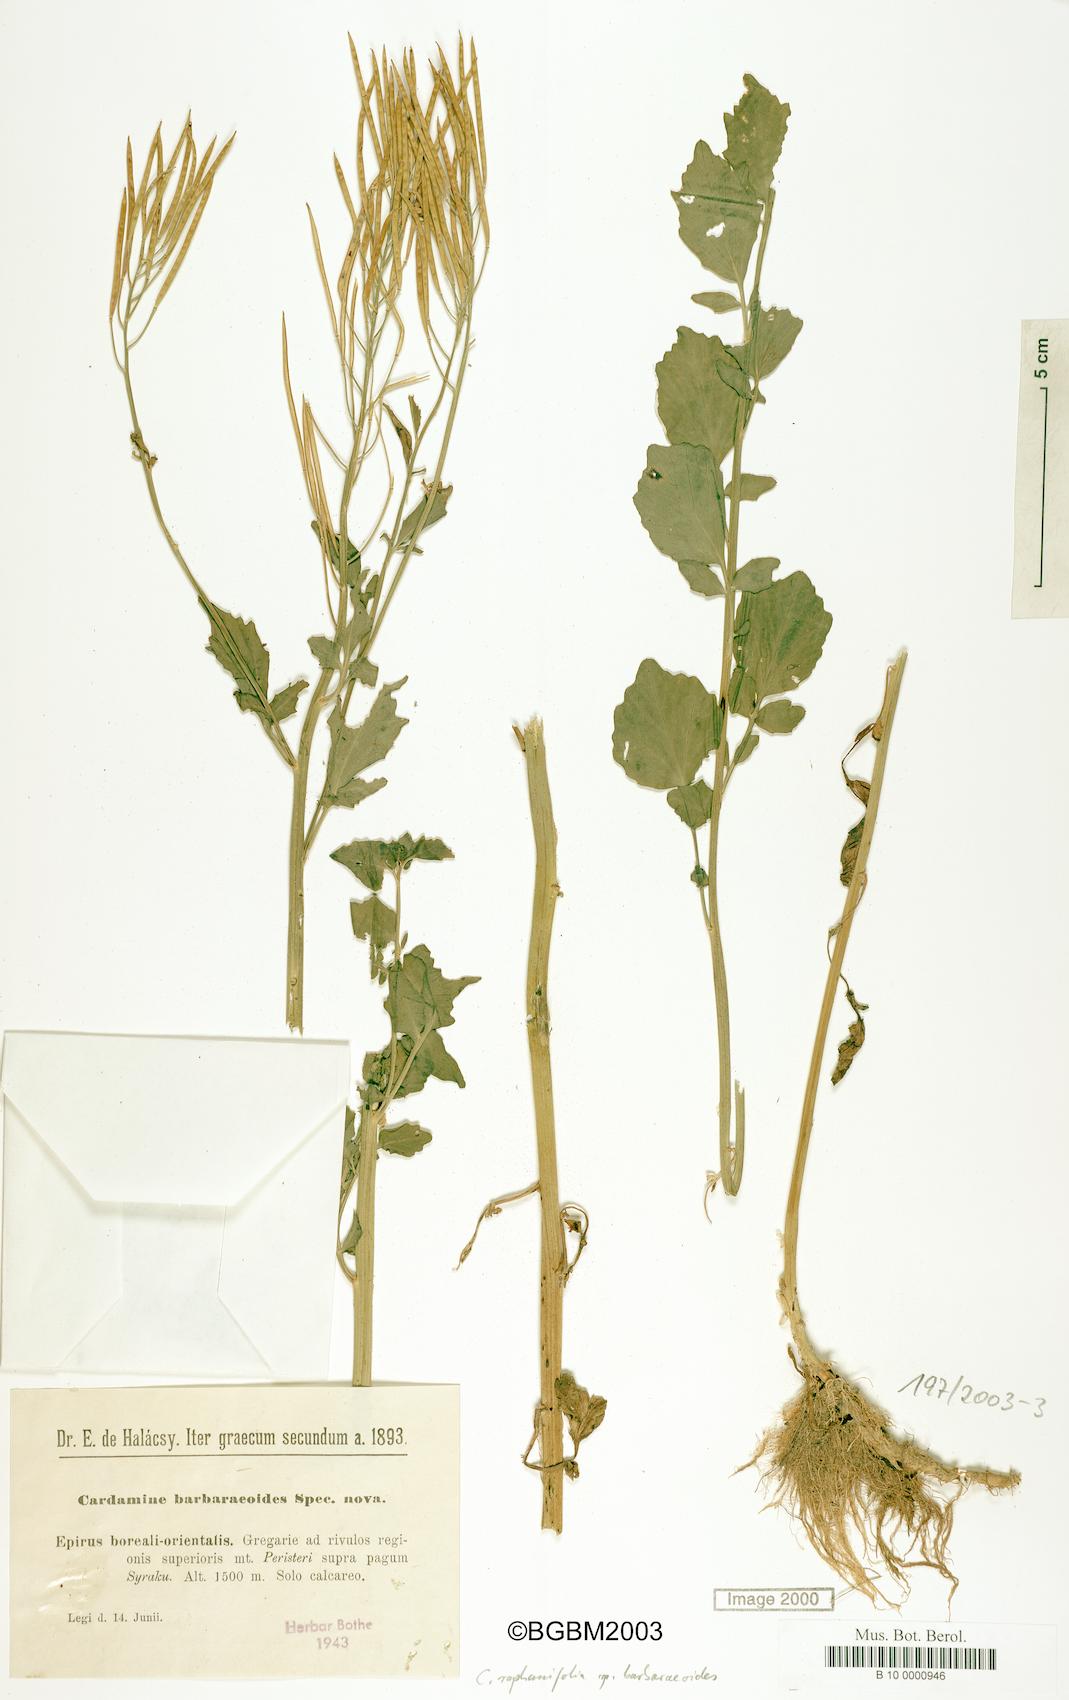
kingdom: Plantae
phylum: Tracheophyta
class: Magnoliopsida
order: Brassicales
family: Brassicaceae
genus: Cardamine
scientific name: Cardamine raphanifolia
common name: Greater cuckooflower
